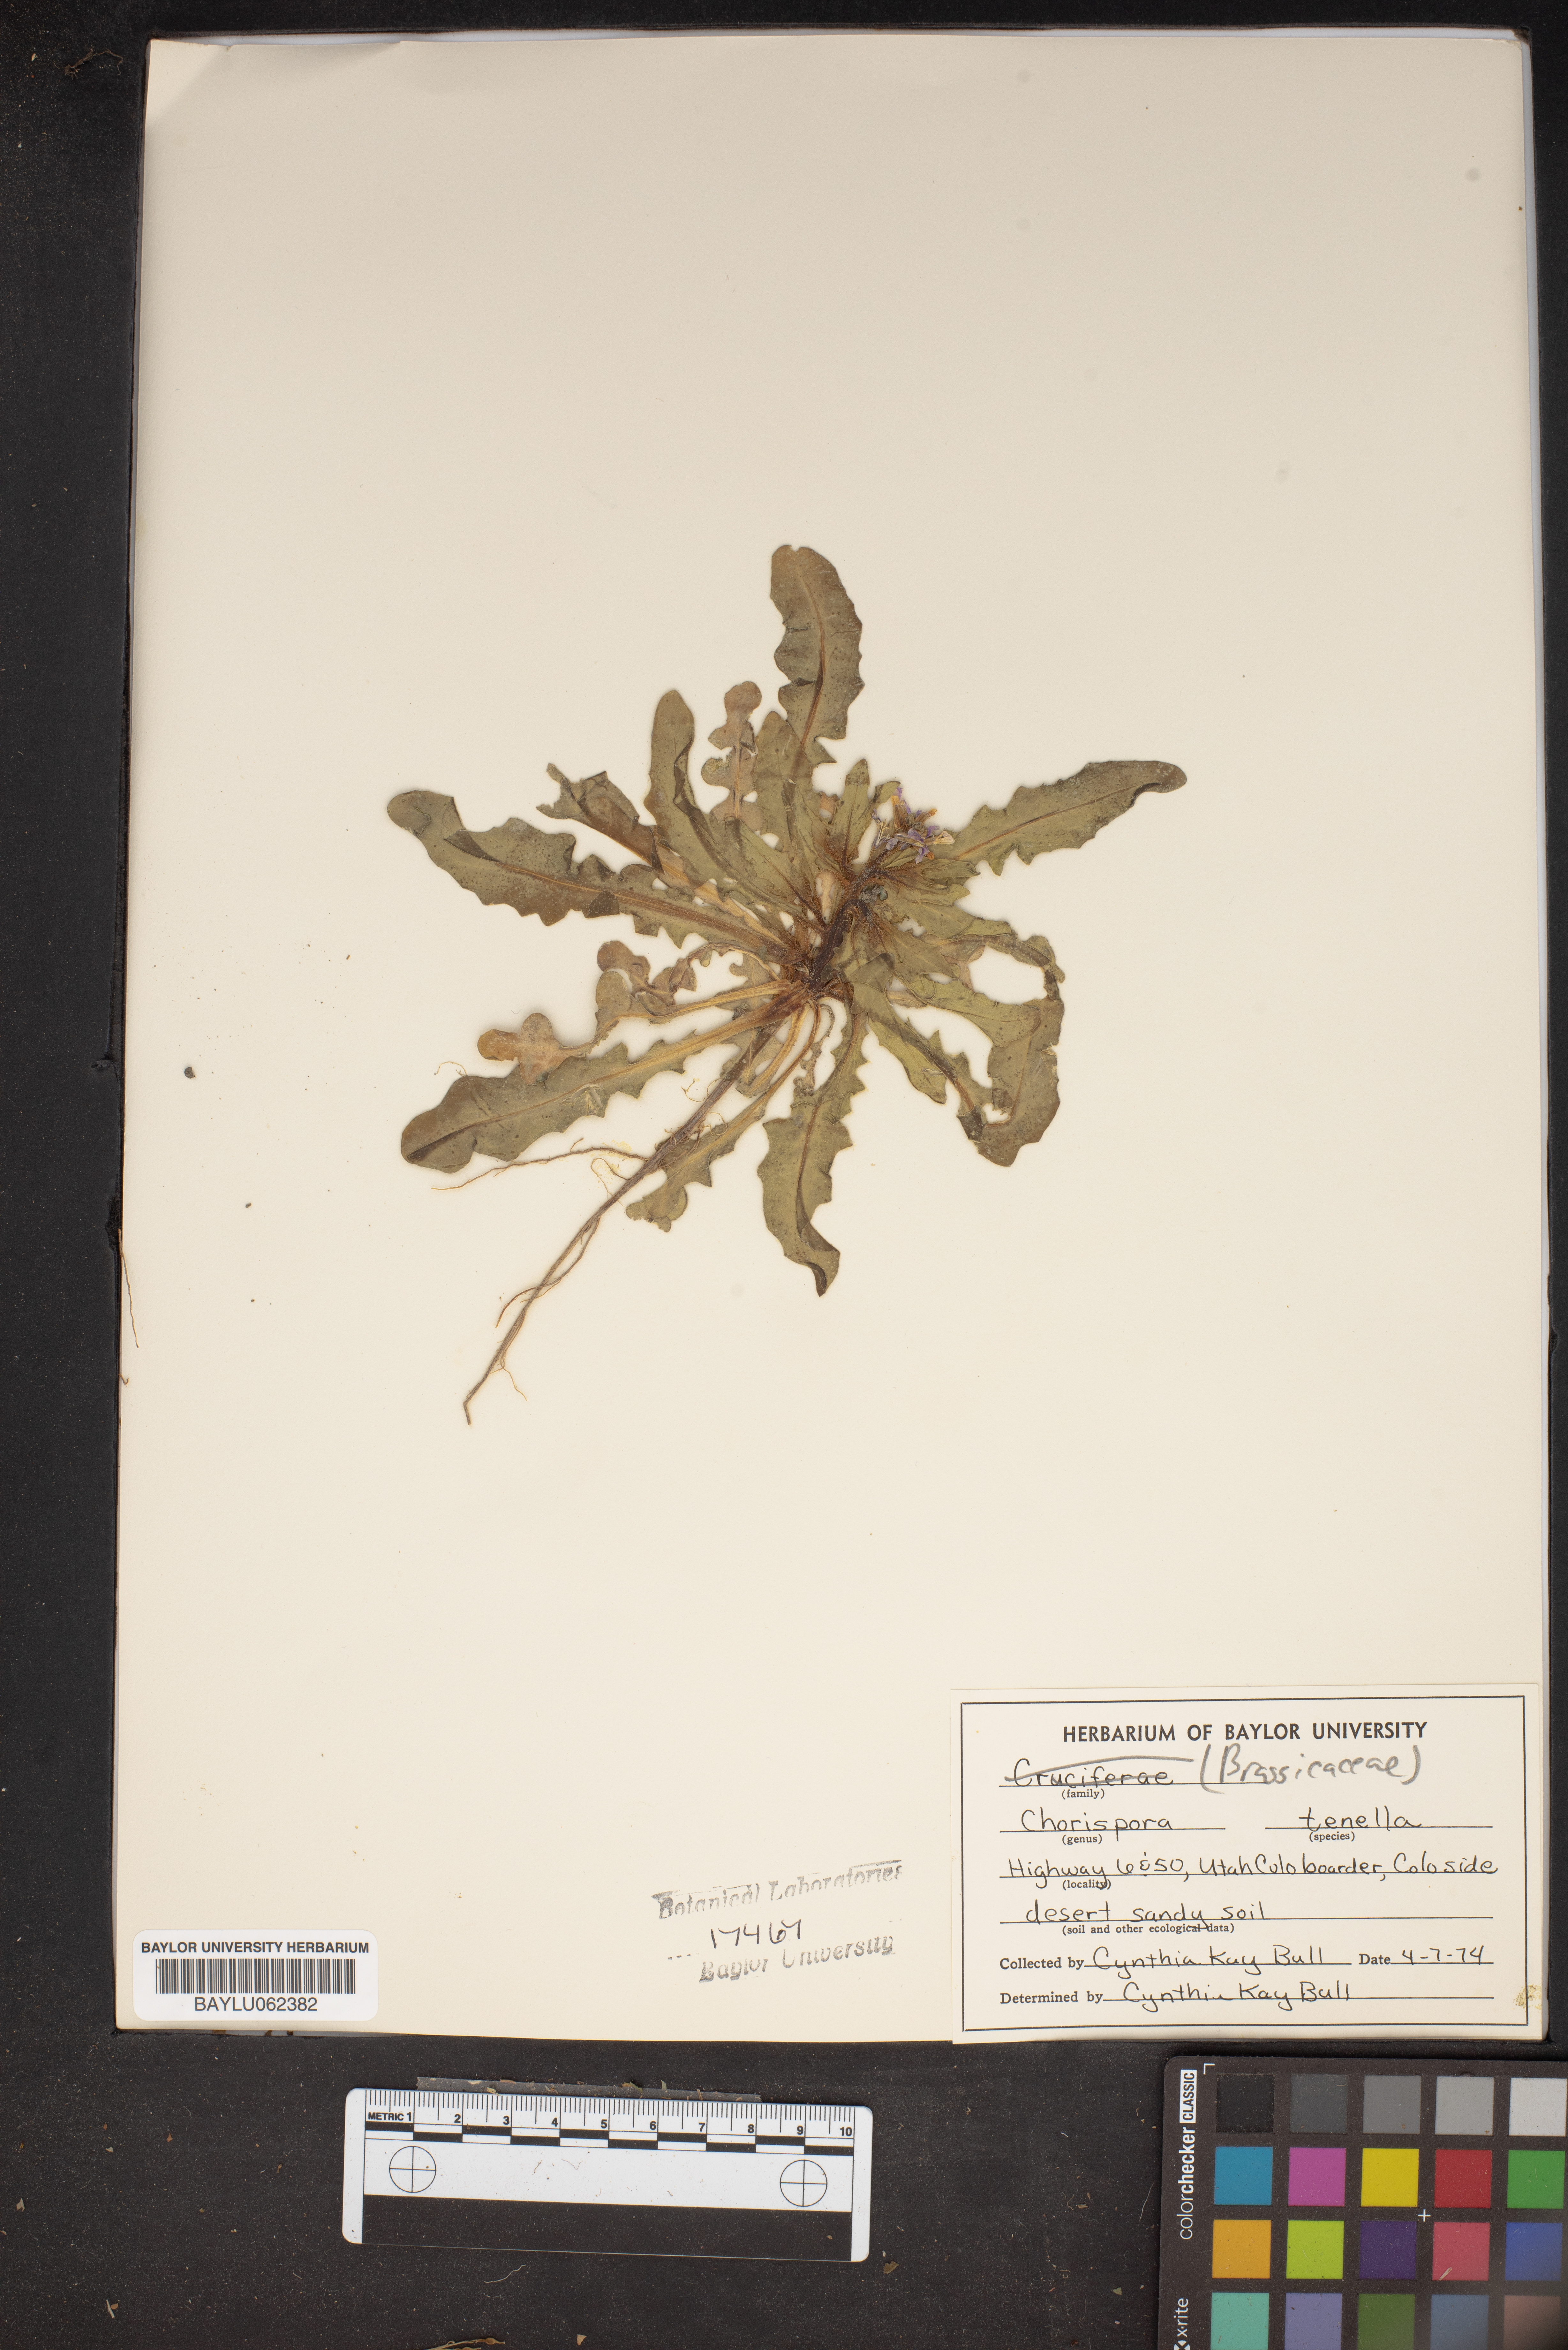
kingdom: Plantae
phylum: Tracheophyta
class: Magnoliopsida
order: Brassicales
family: Brassicaceae
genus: Chorispora
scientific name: Chorispora tenella
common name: Crossflower
